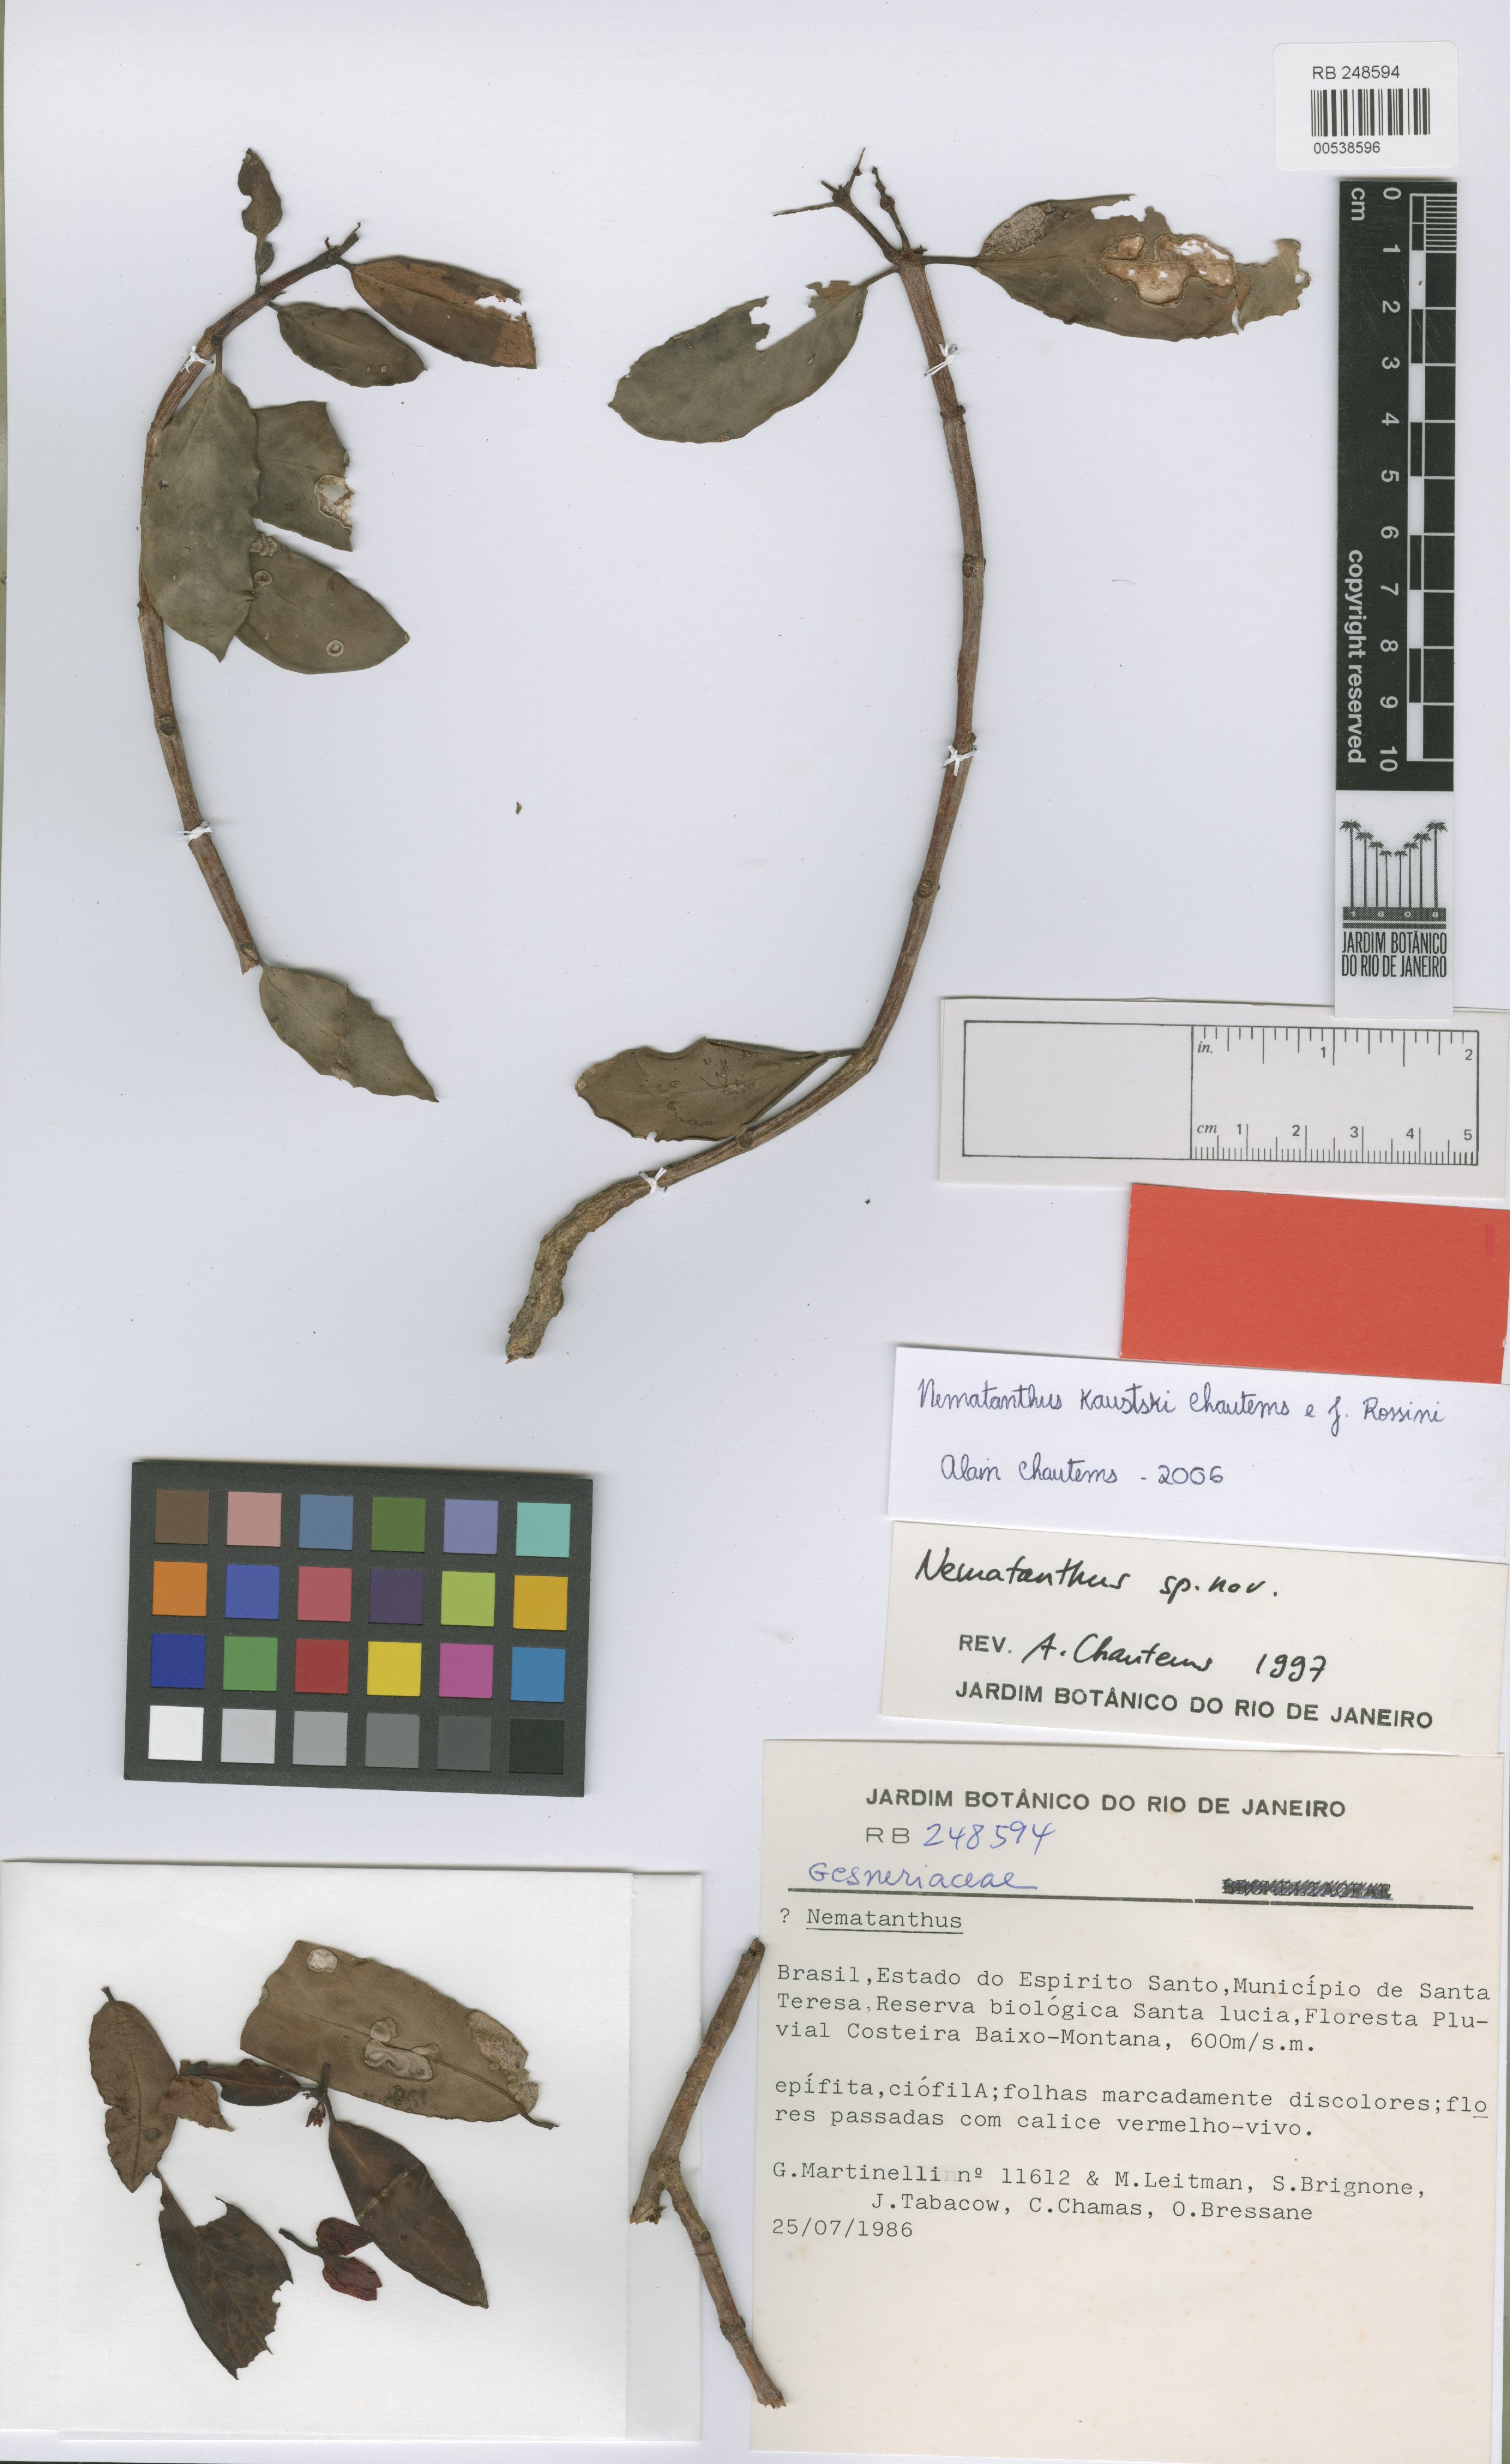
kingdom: Plantae
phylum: Tracheophyta
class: Magnoliopsida
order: Lamiales
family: Gesneriaceae
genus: Nematanthus
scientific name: Nematanthus kautskyi
